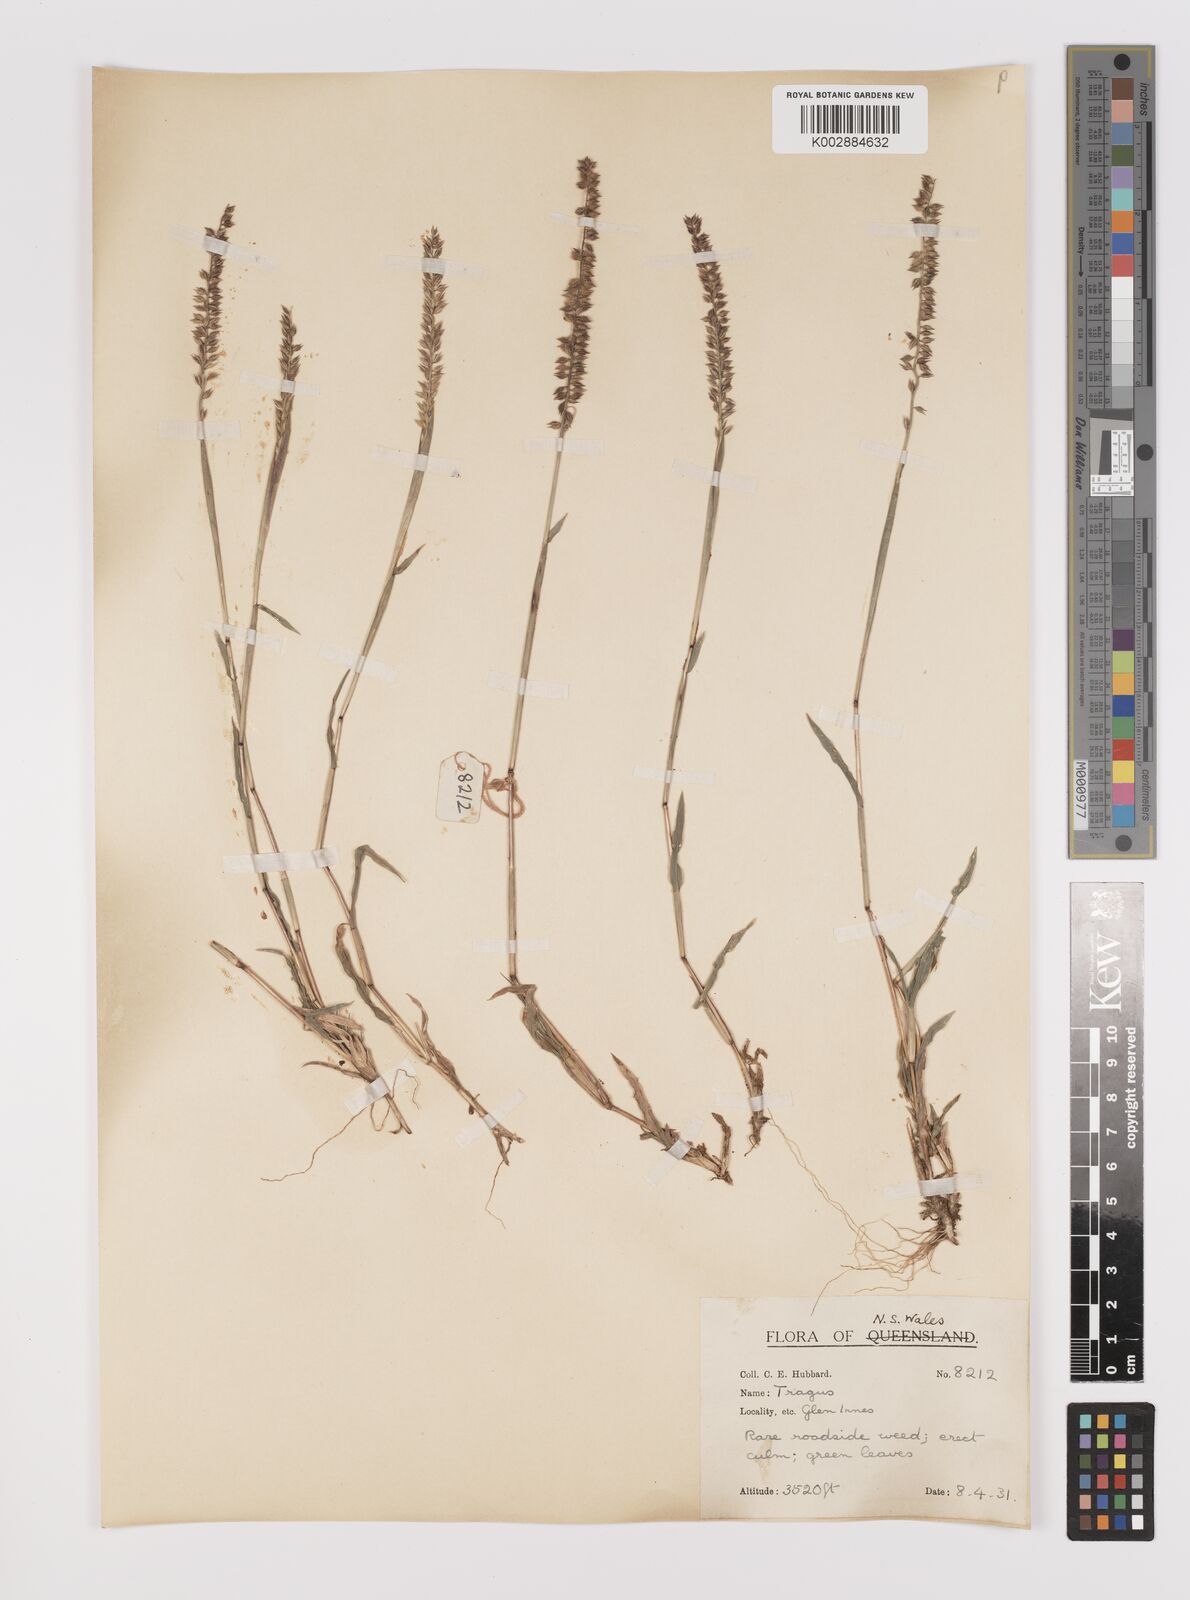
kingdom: Plantae
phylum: Tracheophyta
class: Liliopsida
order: Poales
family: Poaceae
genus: Tragus
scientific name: Tragus australianus
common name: Australian bur-grass
